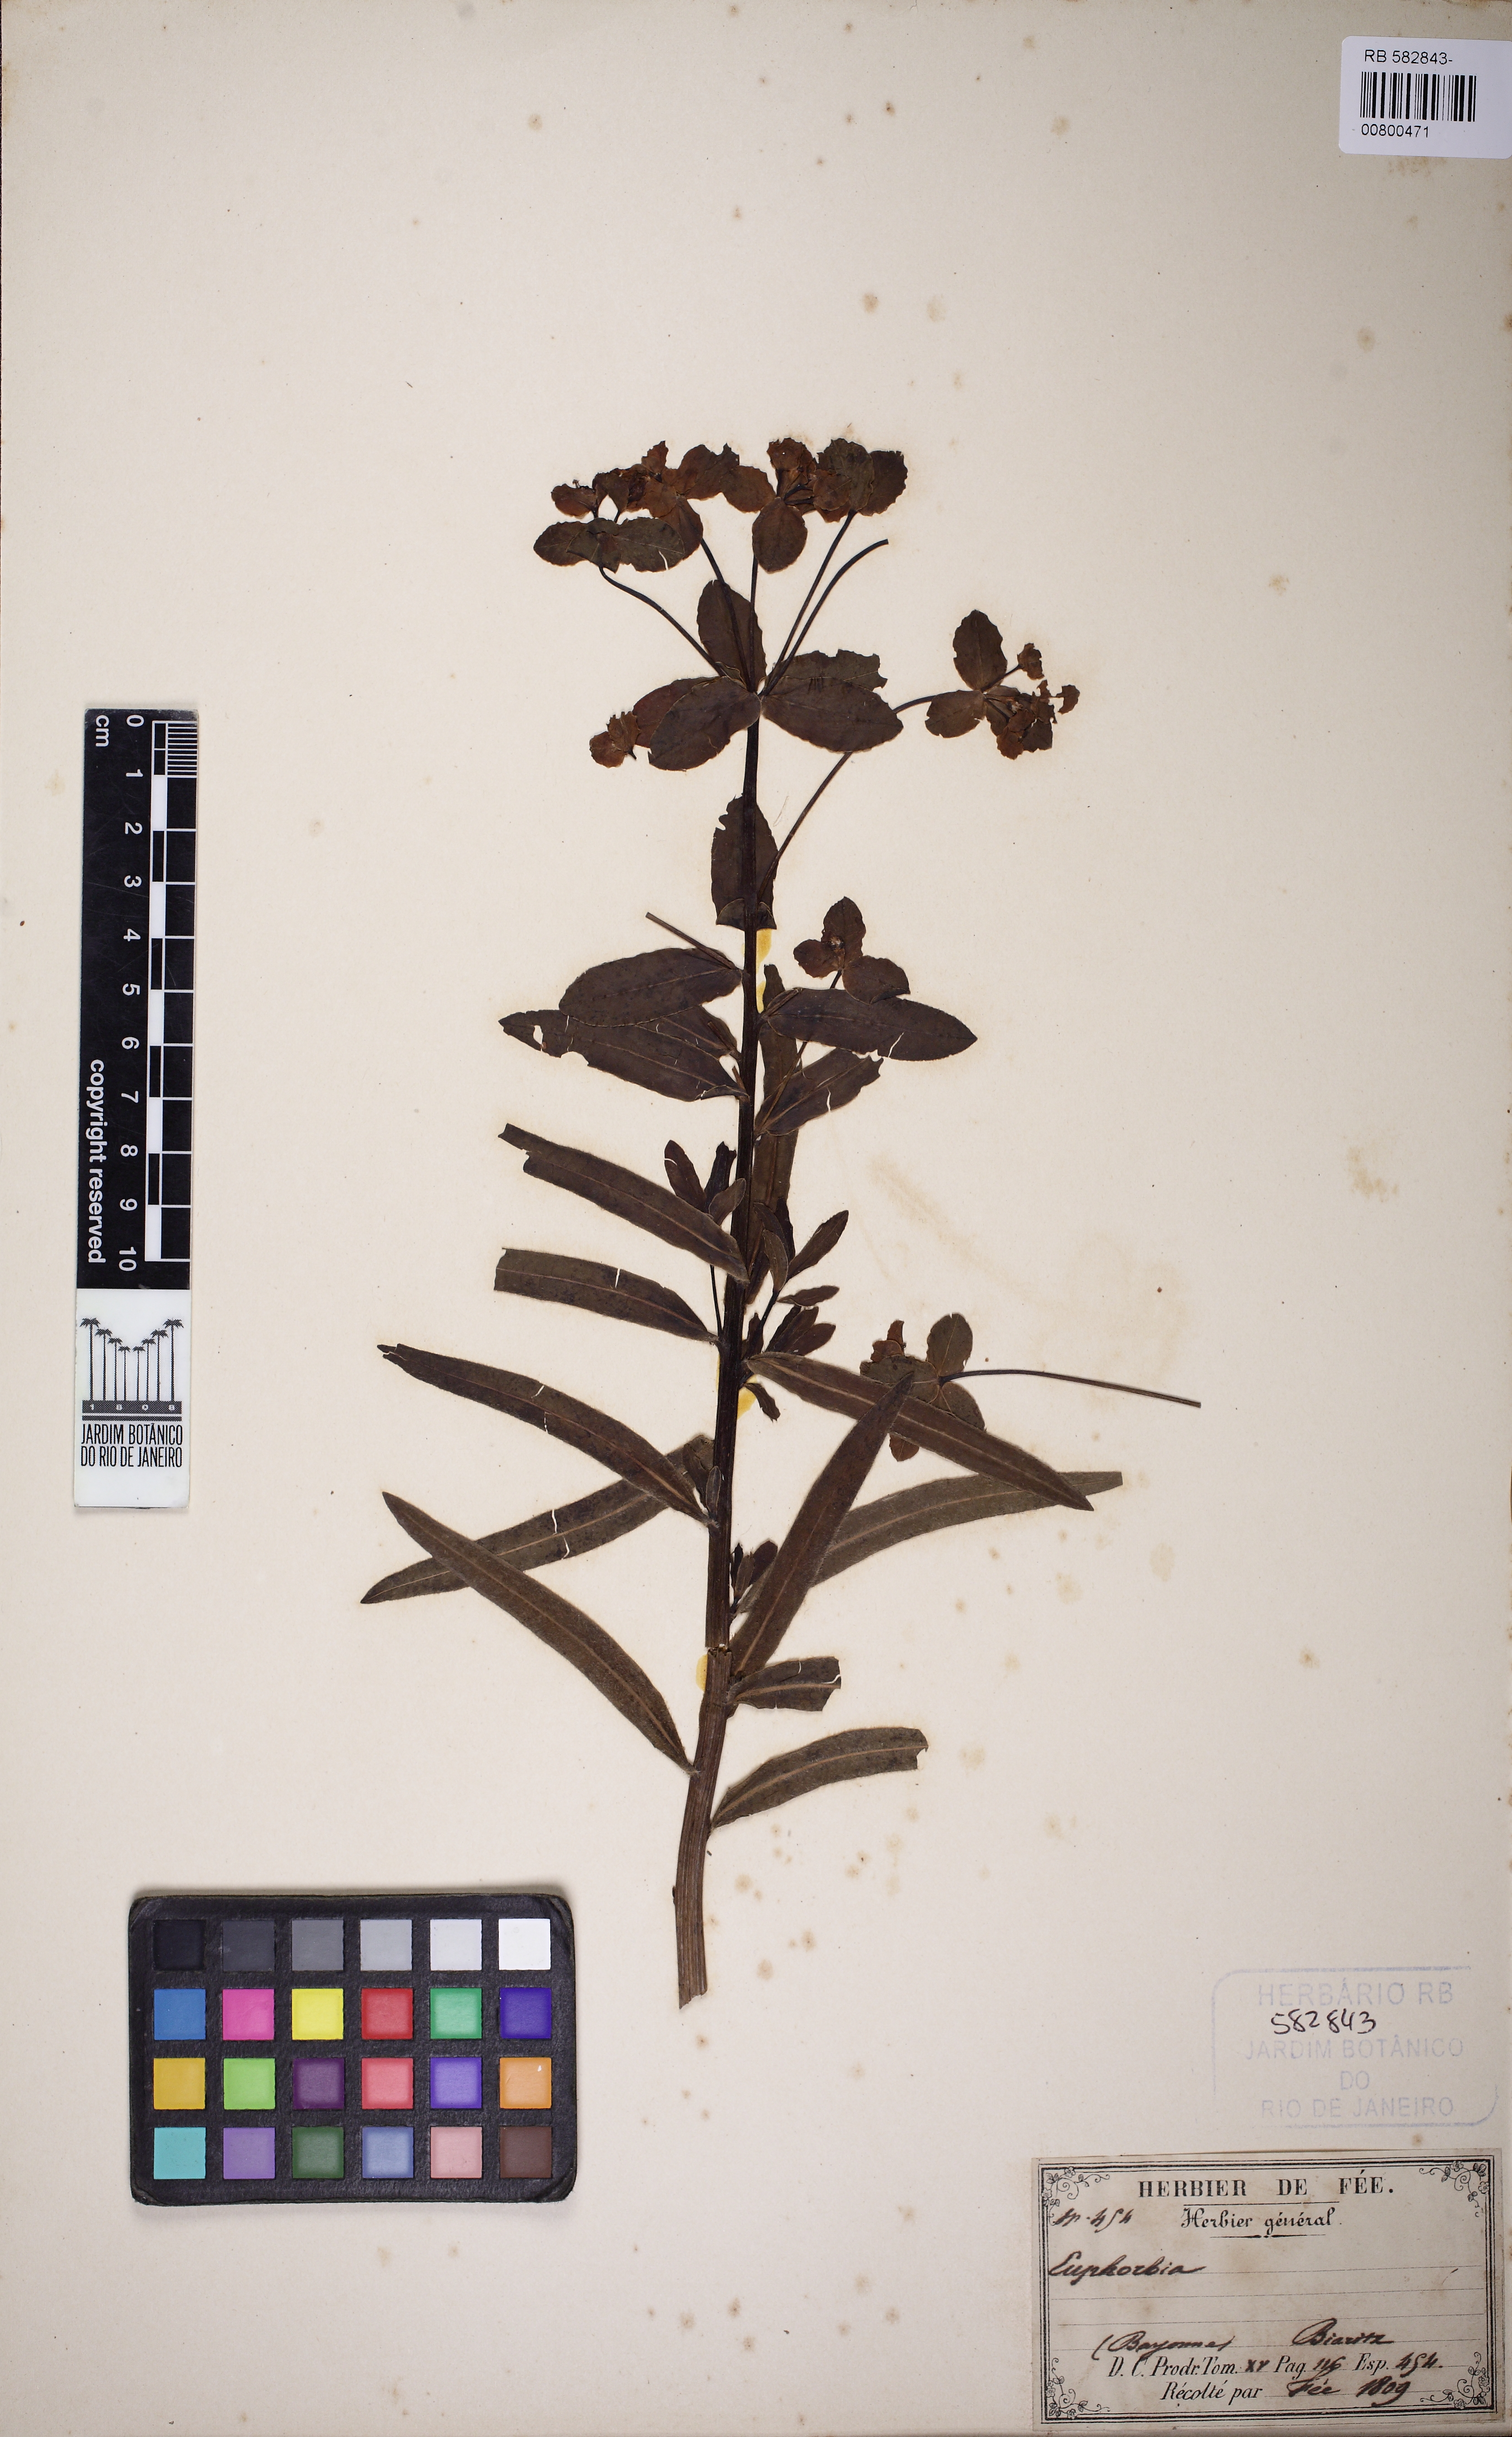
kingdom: Plantae
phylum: Tracheophyta
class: Magnoliopsida
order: Malpighiales
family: Euphorbiaceae
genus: Euphorbia
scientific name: Euphorbia
